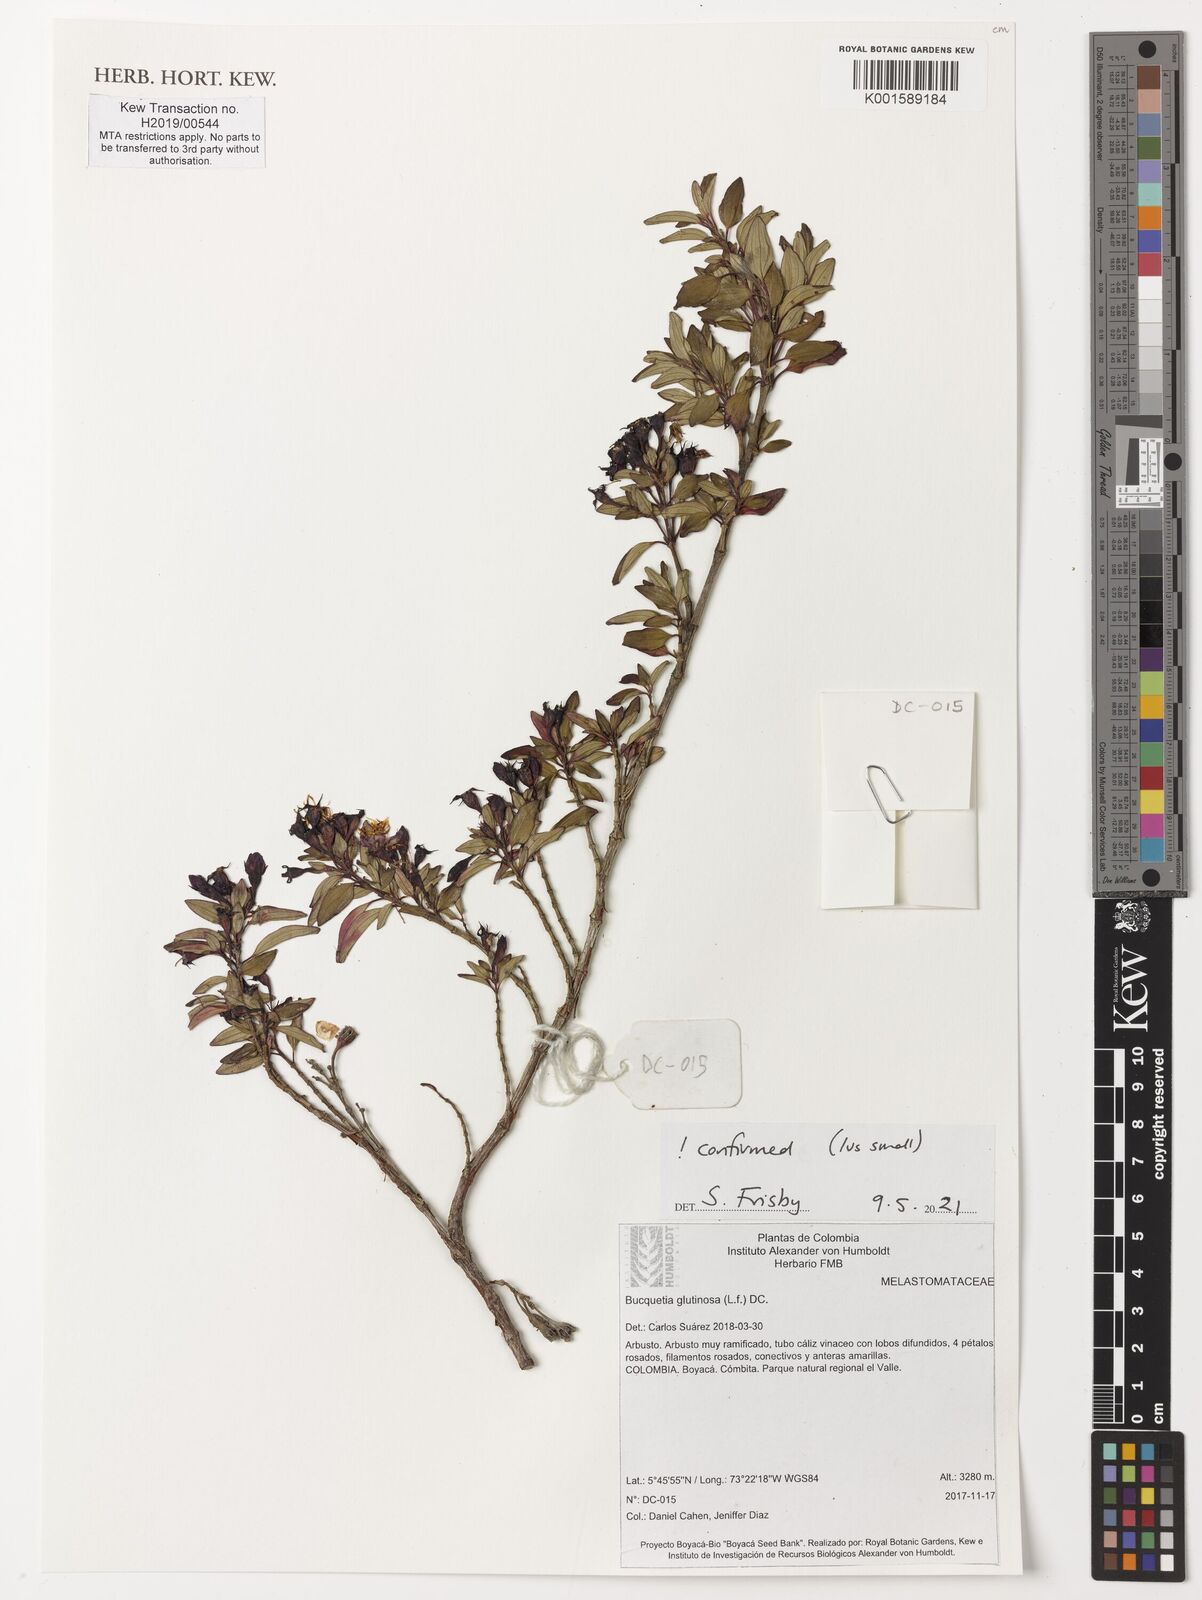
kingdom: Plantae
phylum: Tracheophyta
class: Magnoliopsida
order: Myrtales
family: Melastomataceae
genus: Bucquetia
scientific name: Bucquetia glutinosa
